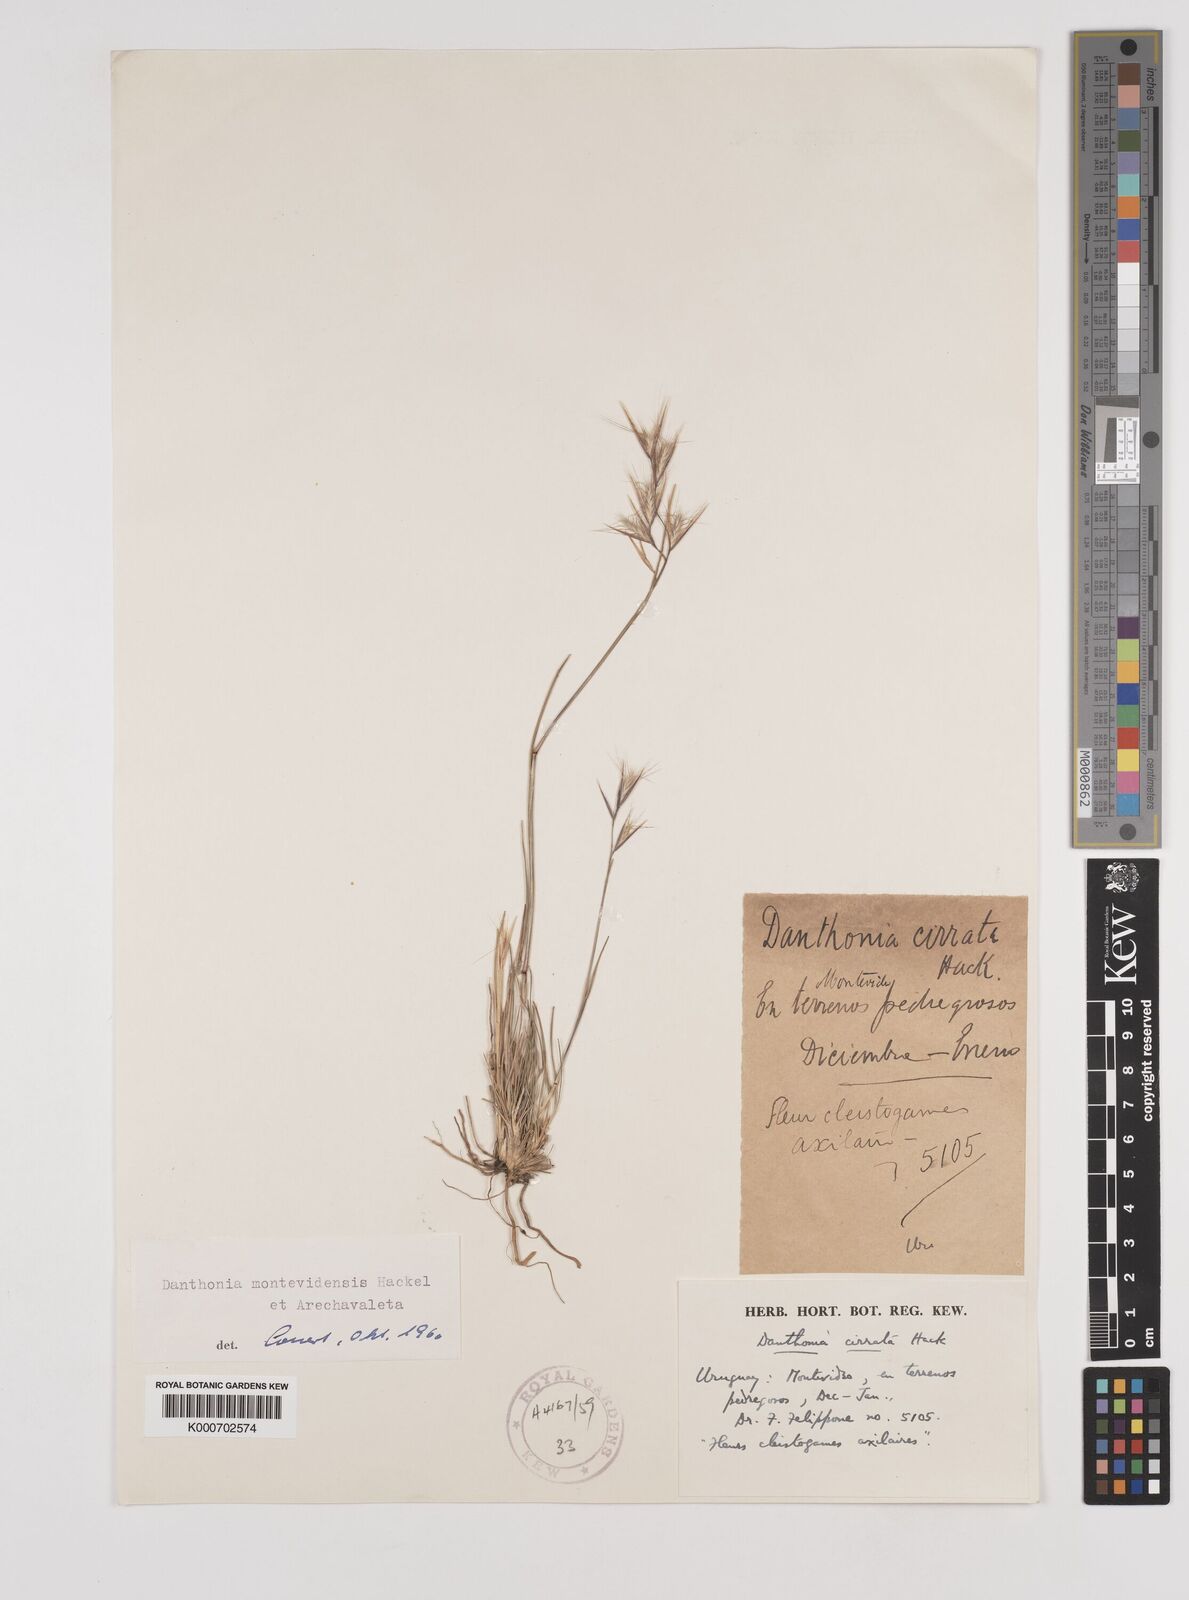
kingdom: Plantae
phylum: Tracheophyta
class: Liliopsida
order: Poales
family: Poaceae
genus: Danthonia
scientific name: Danthonia montevidensis
